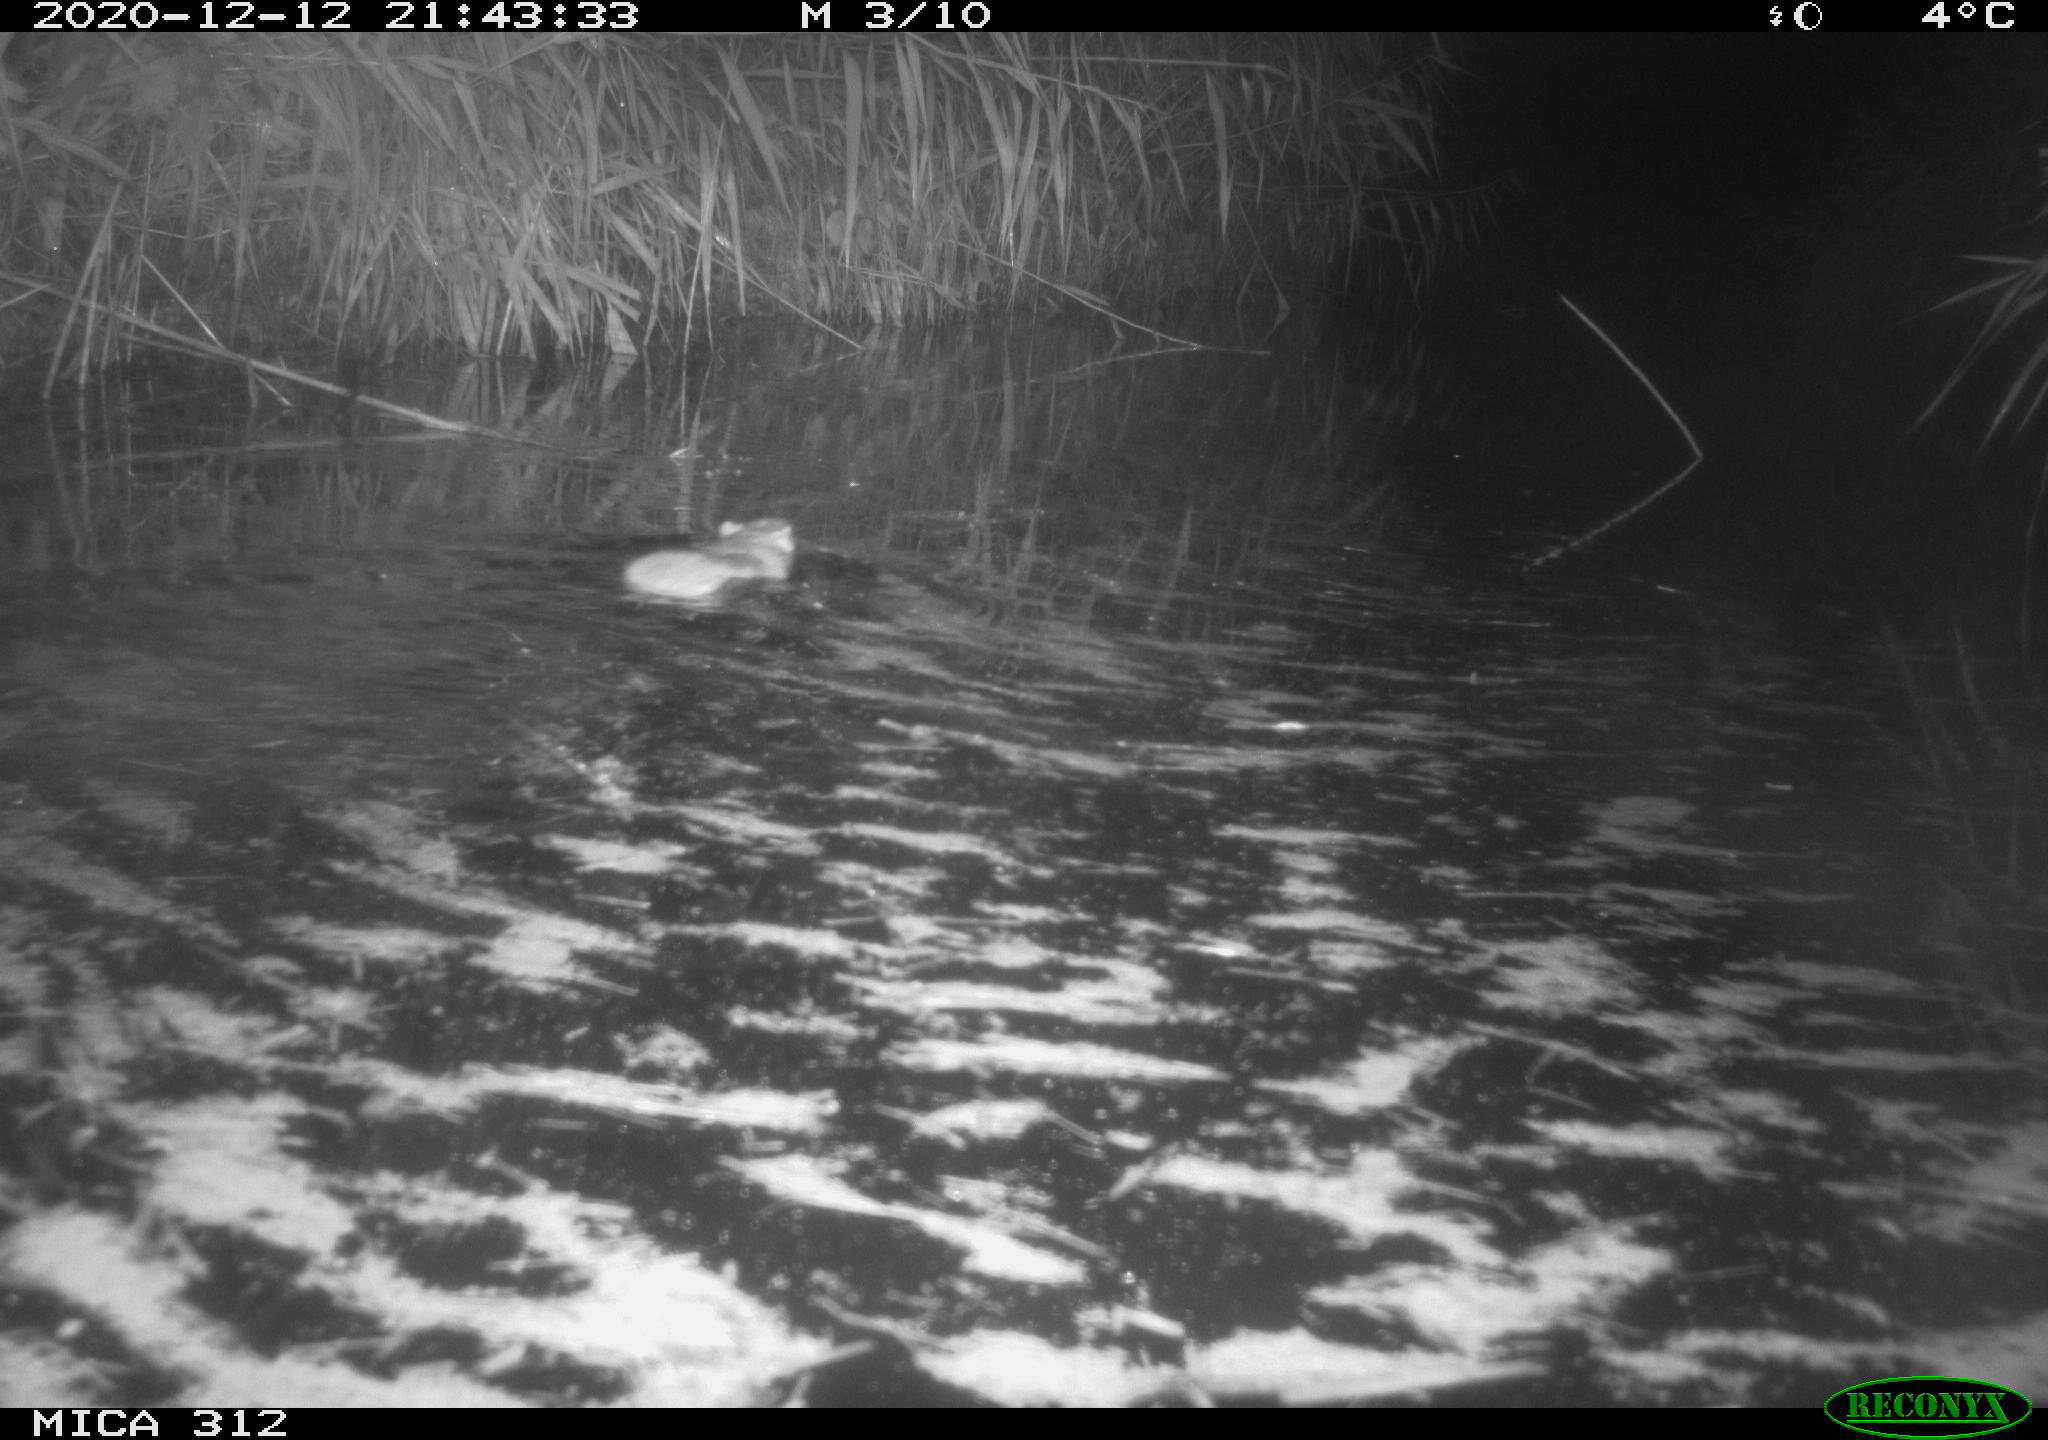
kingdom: Animalia
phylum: Chordata
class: Mammalia
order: Rodentia
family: Muridae
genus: Rattus
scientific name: Rattus norvegicus
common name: Brown rat
